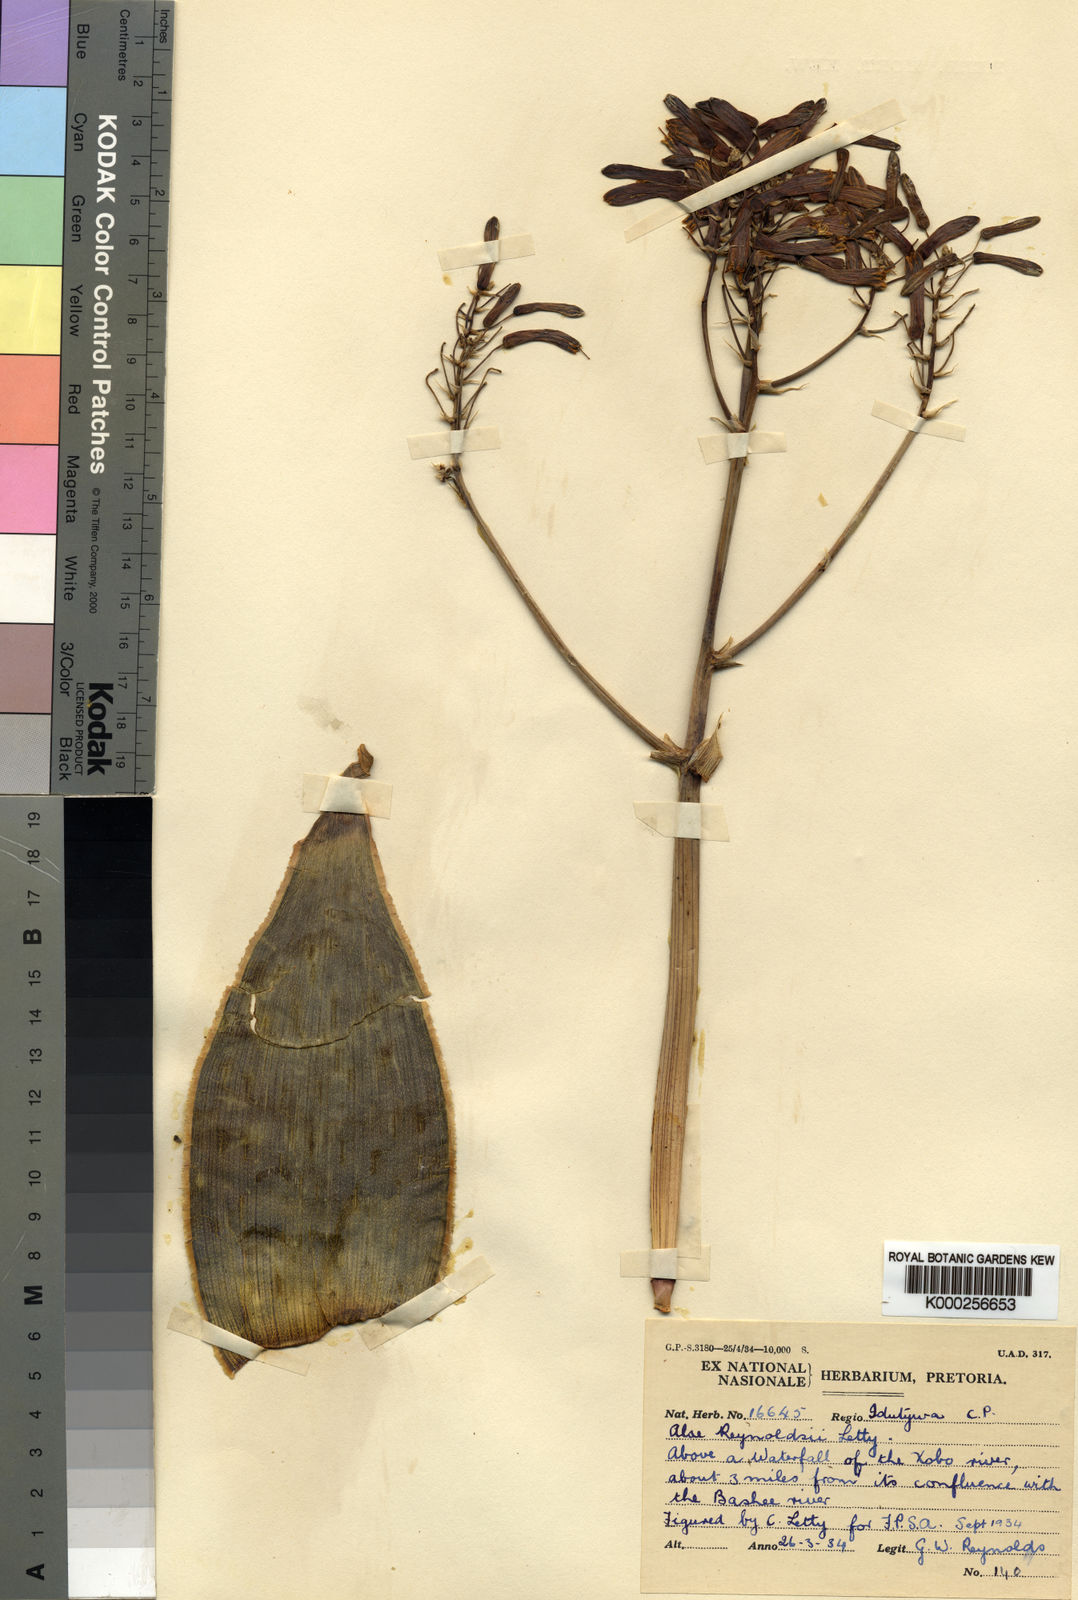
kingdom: Plantae
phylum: Tracheophyta
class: Liliopsida
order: Asparagales
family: Asphodelaceae
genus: Aloe
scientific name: Aloe reynoldsii
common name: Yellow spineless aloe
